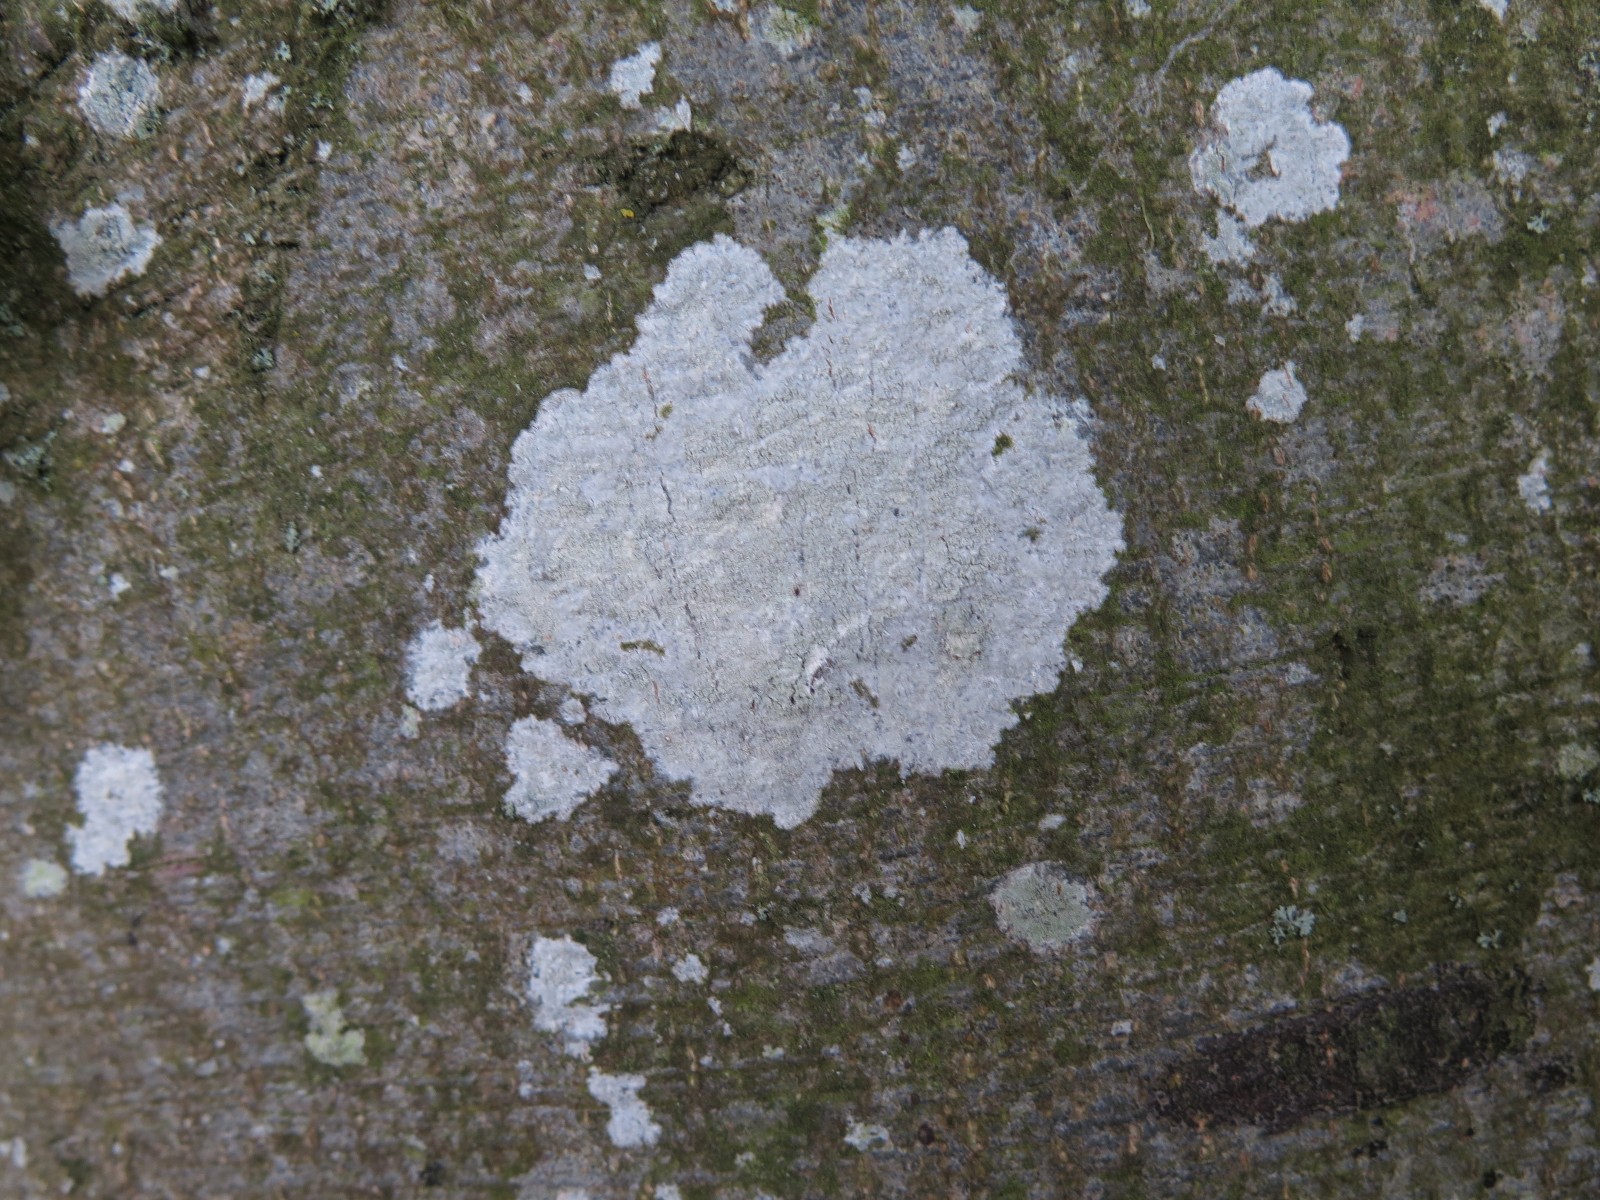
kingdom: Fungi
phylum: Ascomycota
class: Lecanoromycetes
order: Ostropales
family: Phlyctidaceae
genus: Phlyctis
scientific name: Phlyctis argena
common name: almindelig sølvlav
